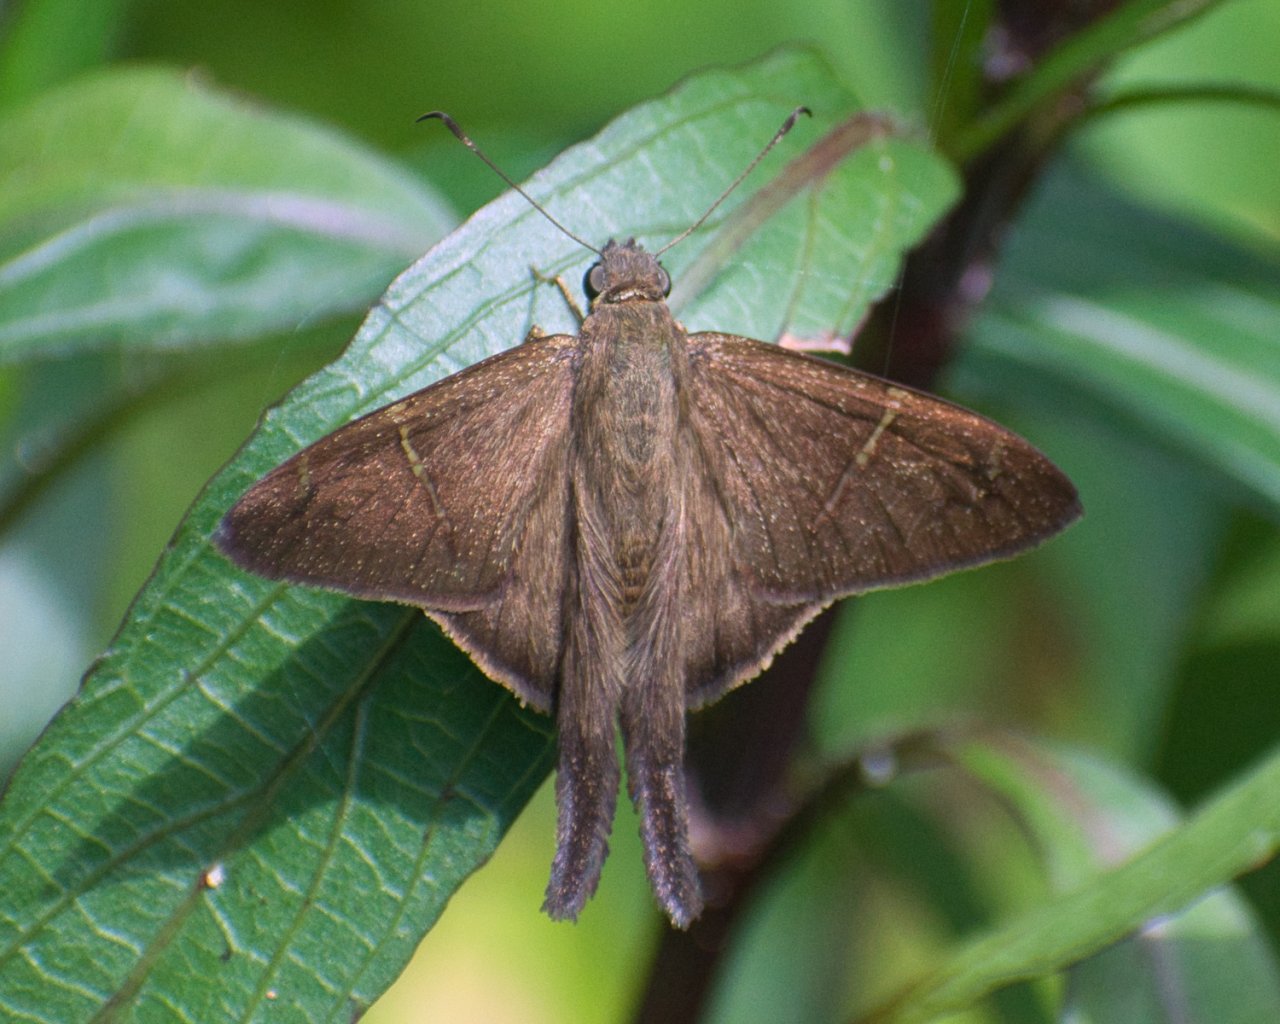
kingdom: Animalia
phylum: Arthropoda
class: Insecta
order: Lepidoptera
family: Hesperiidae
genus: Urbanus
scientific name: Urbanus simplicius
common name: Plain Longtail
